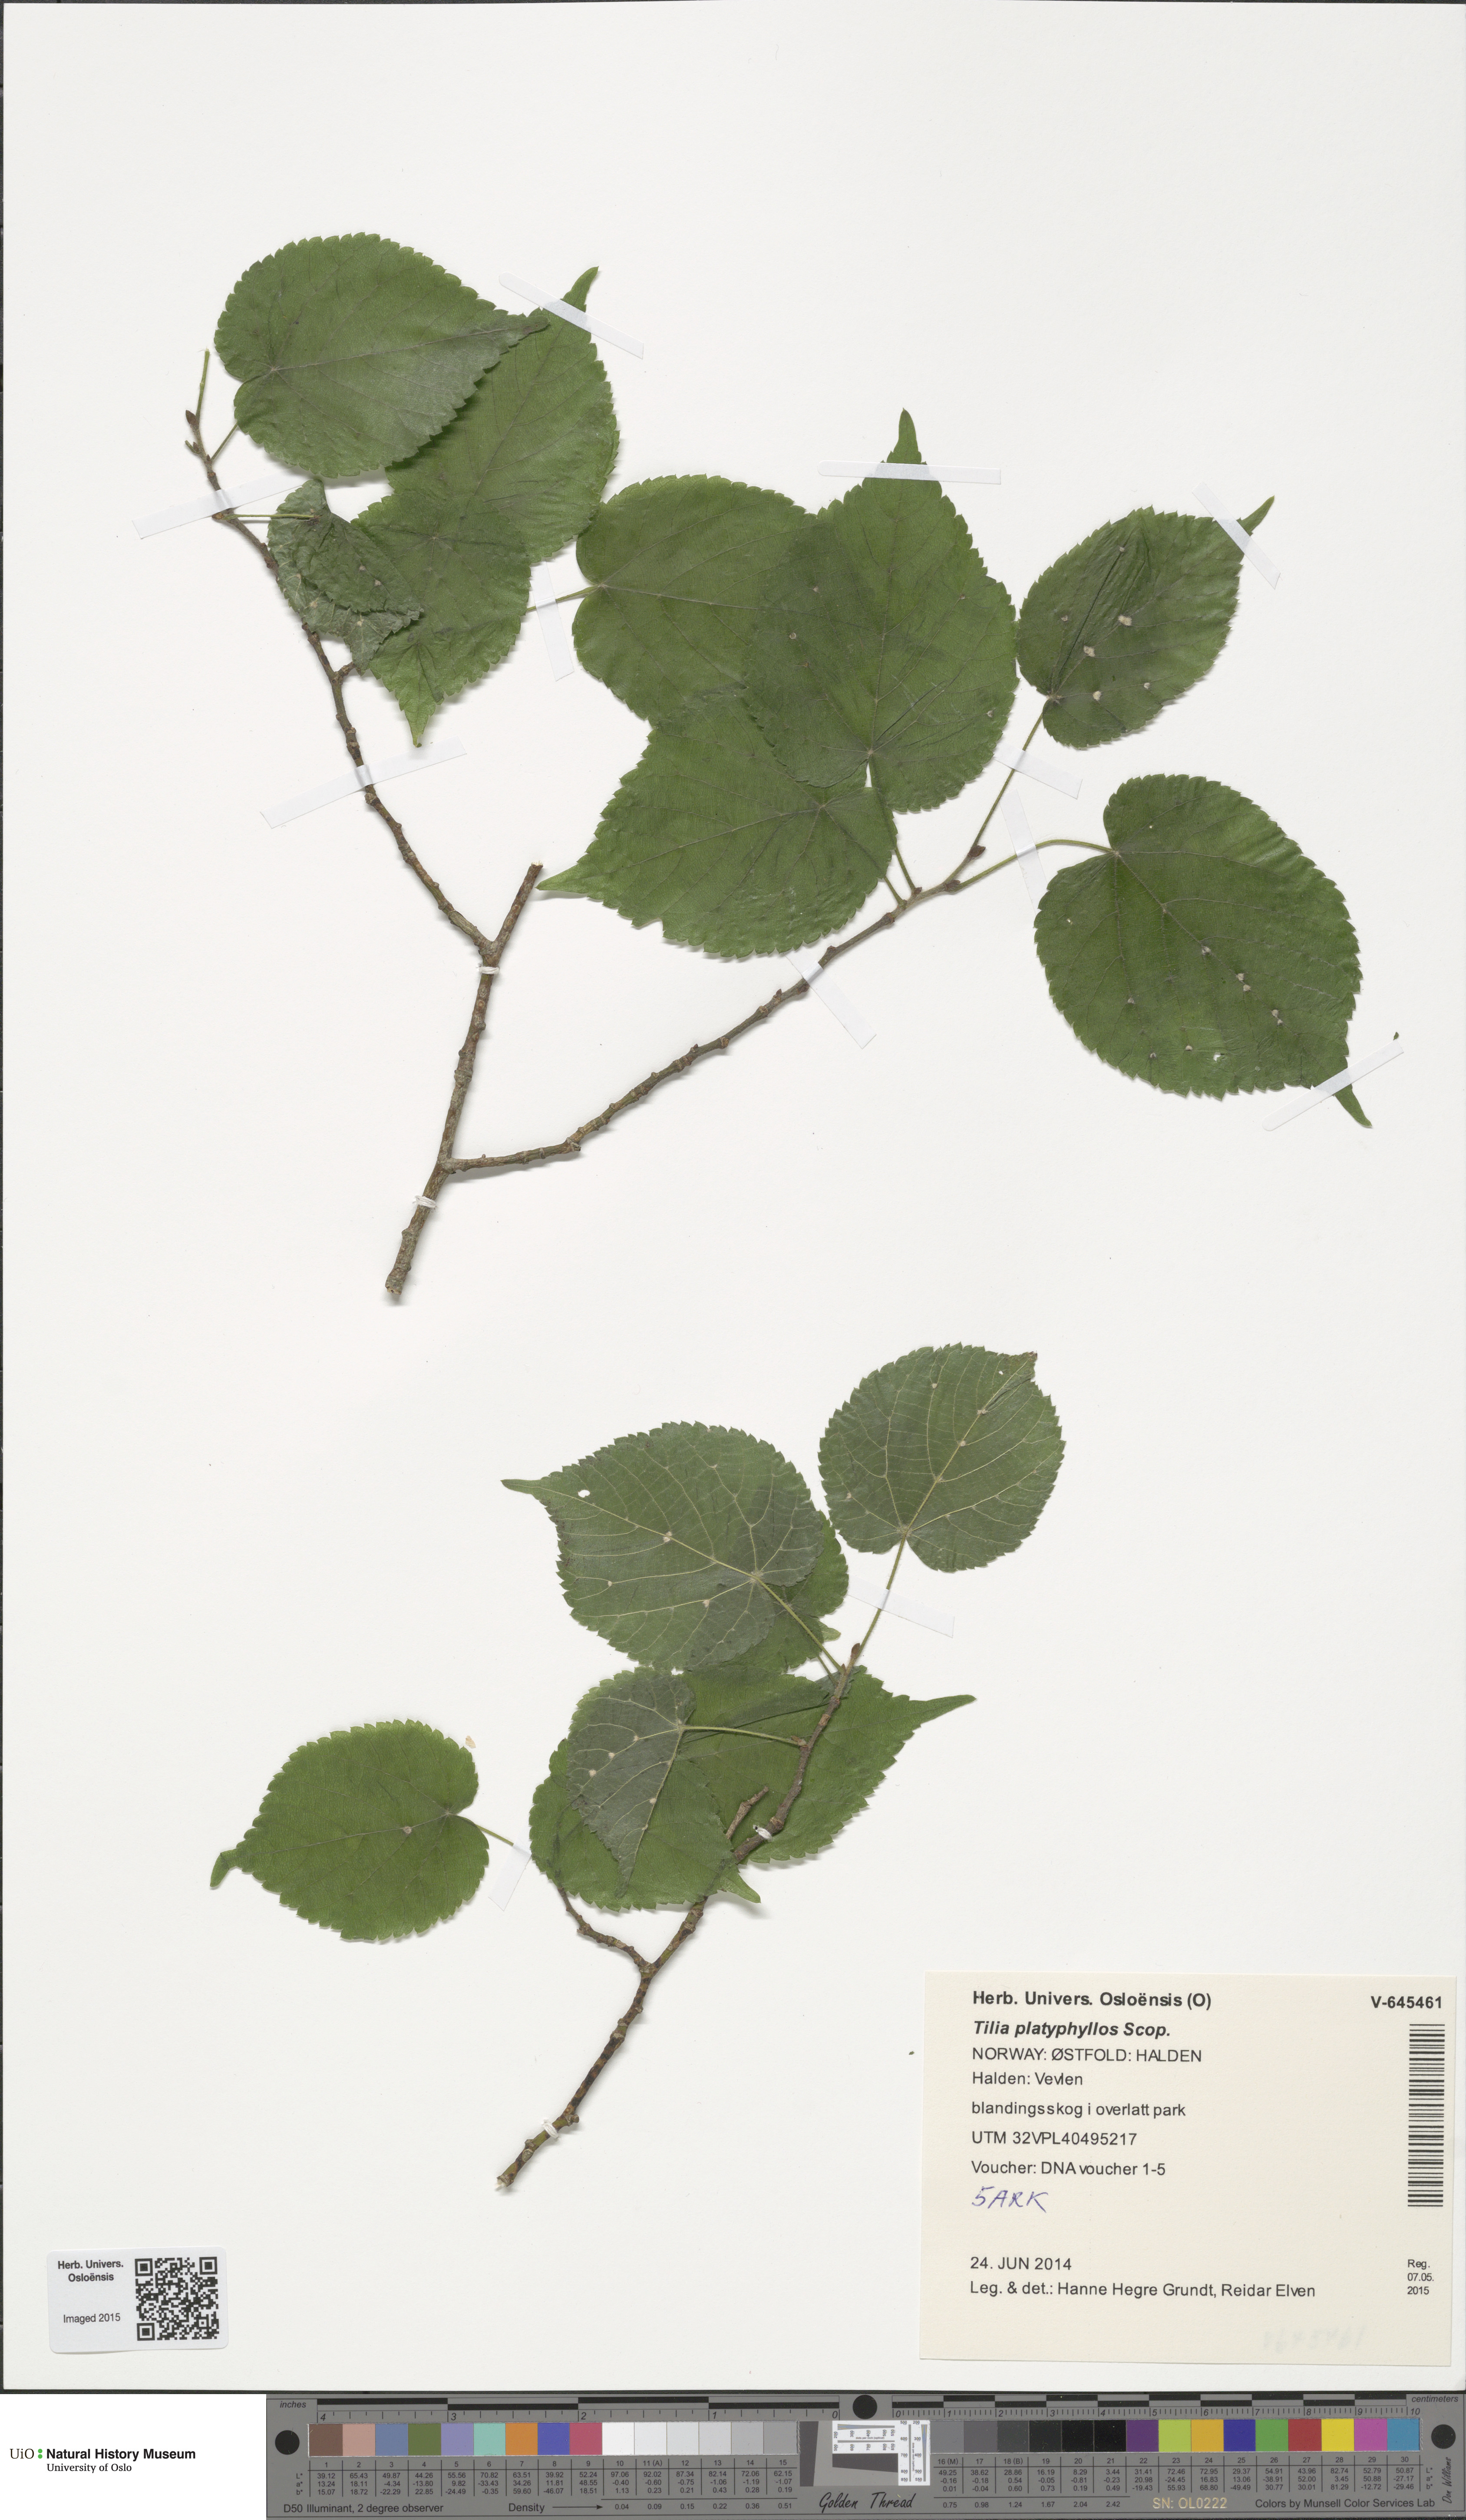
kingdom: Plantae
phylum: Tracheophyta
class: Magnoliopsida
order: Malvales
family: Malvaceae
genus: Tilia
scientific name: Tilia platyphyllos
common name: Large-leaved lime
